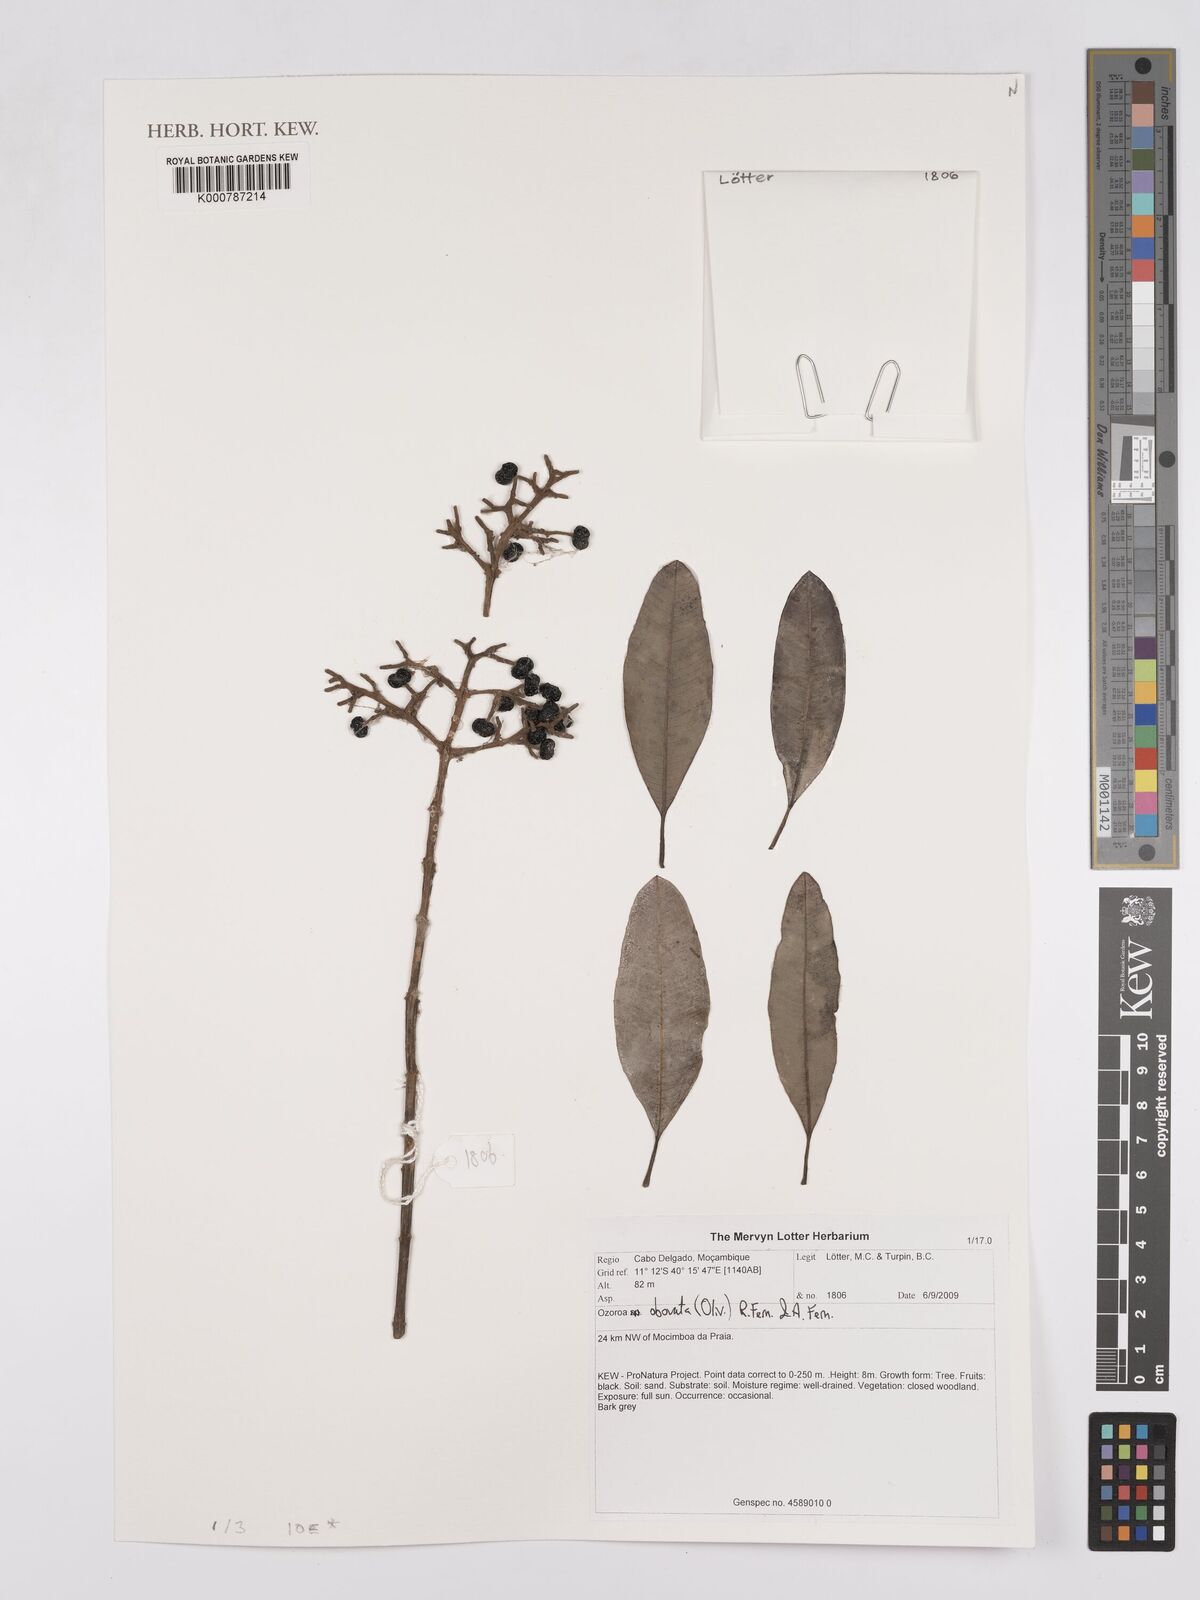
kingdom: Plantae
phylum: Tracheophyta
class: Magnoliopsida
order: Sapindales
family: Anacardiaceae
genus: Ozoroa
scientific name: Ozoroa obovata
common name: Broad-leaved resin tree
